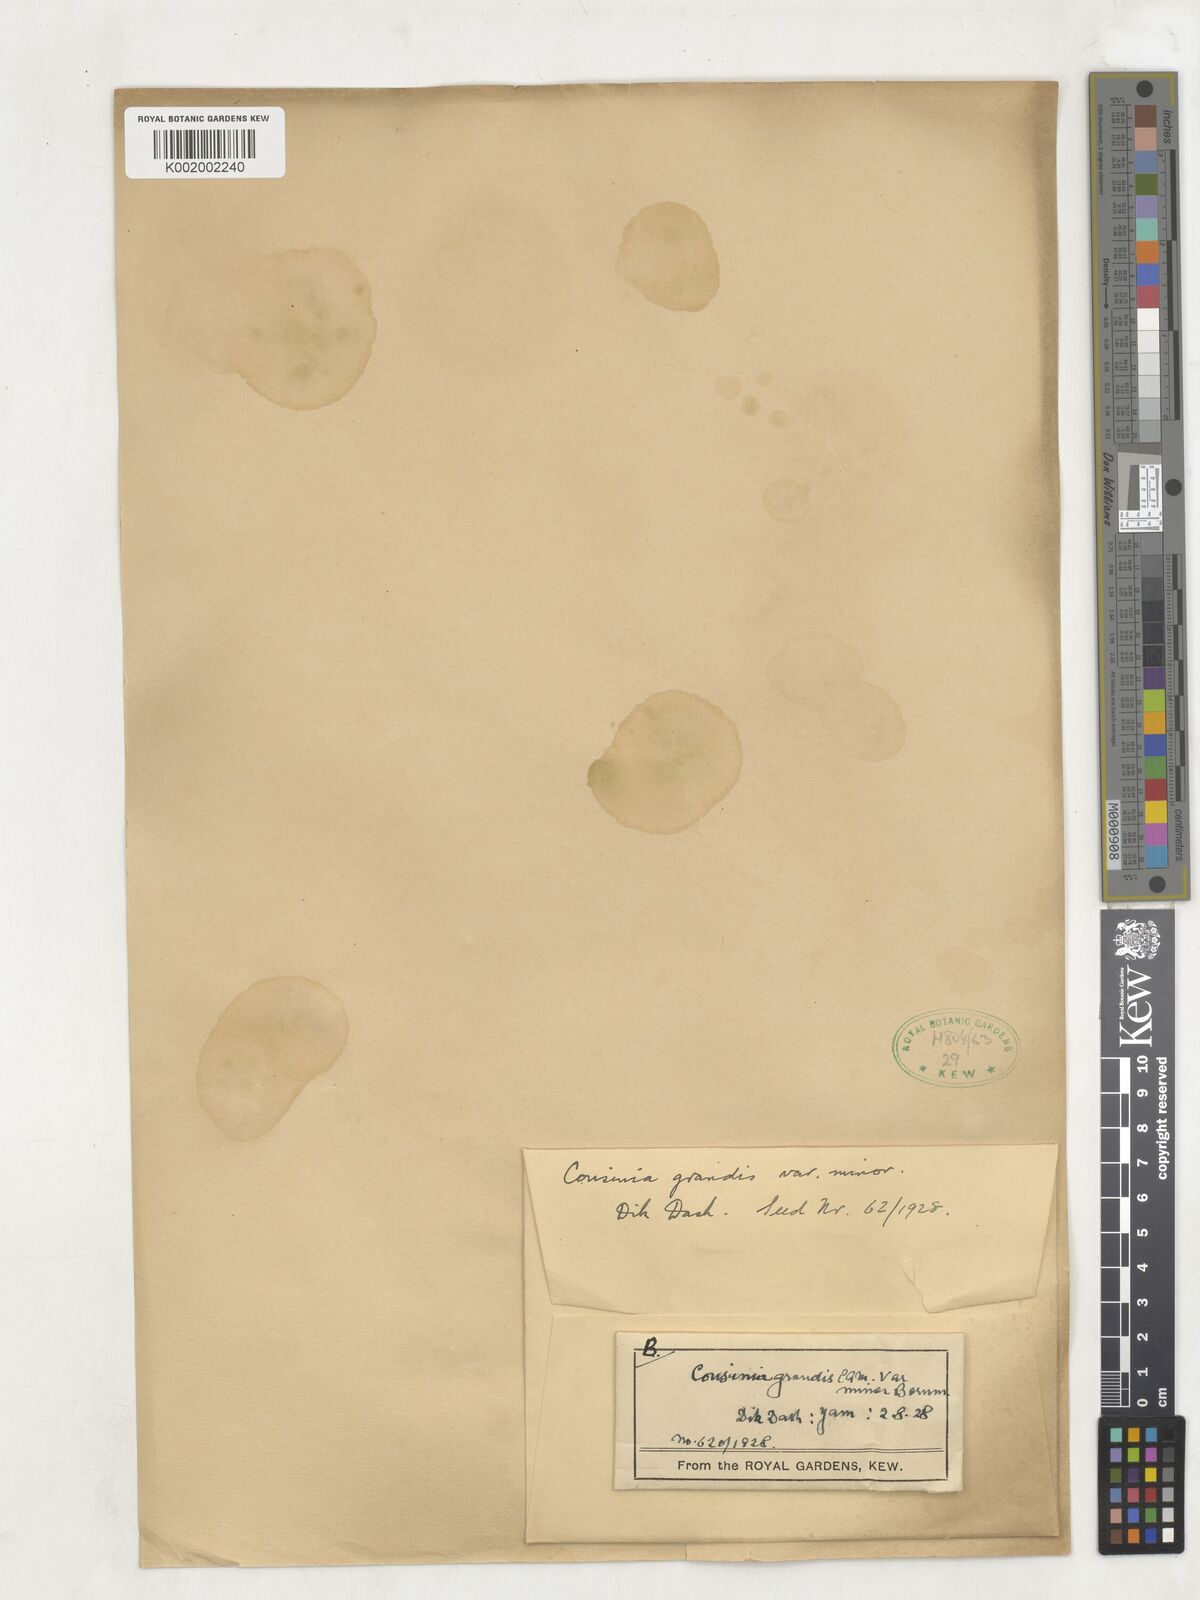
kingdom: Plantae
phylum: Tracheophyta
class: Magnoliopsida
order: Asterales
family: Asteraceae
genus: Cousinia
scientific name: Cousinia grandis
